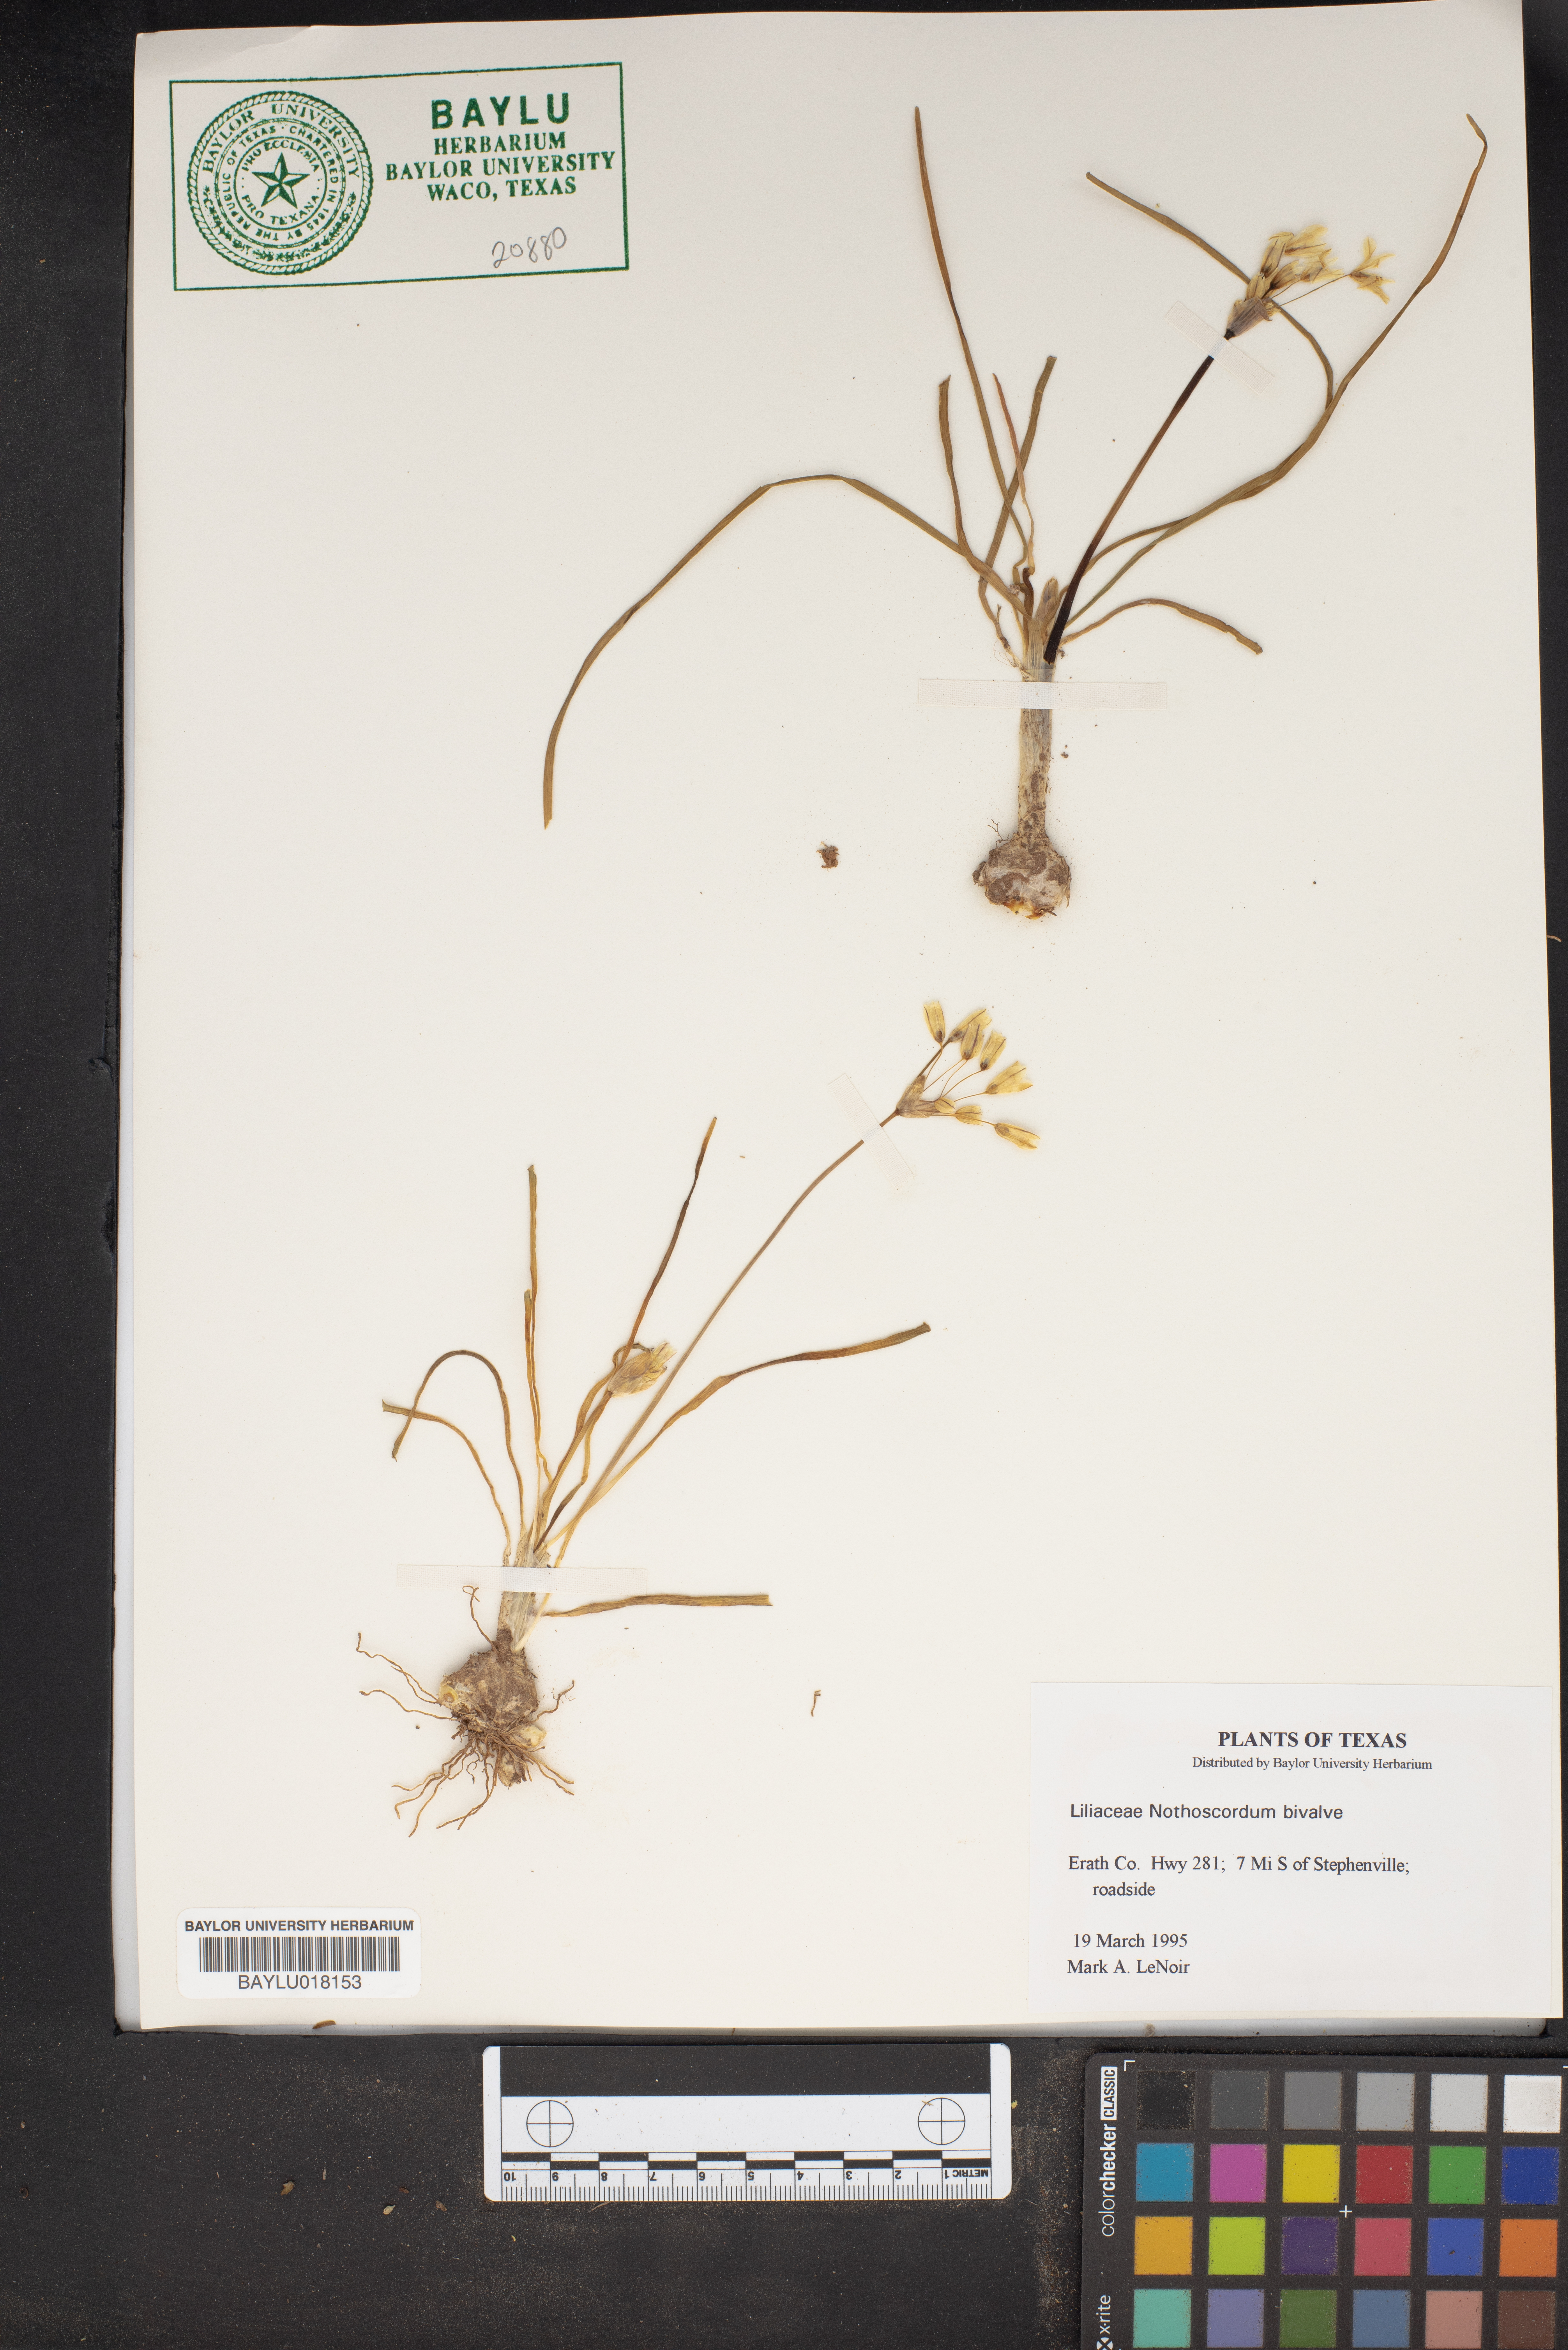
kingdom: Plantae
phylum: Tracheophyta
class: Liliopsida
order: Asparagales
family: Amaryllidaceae
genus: Nothoscordum
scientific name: Nothoscordum bivalve
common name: Crow-poison
